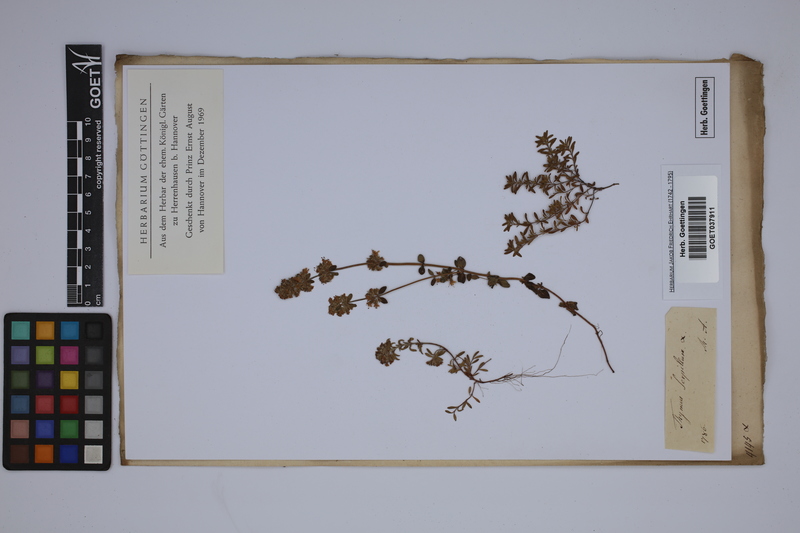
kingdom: Plantae
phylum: Tracheophyta
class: Magnoliopsida
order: Lamiales
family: Lamiaceae
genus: Thymus
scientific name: Thymus serpyllum
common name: Breckland thyme
